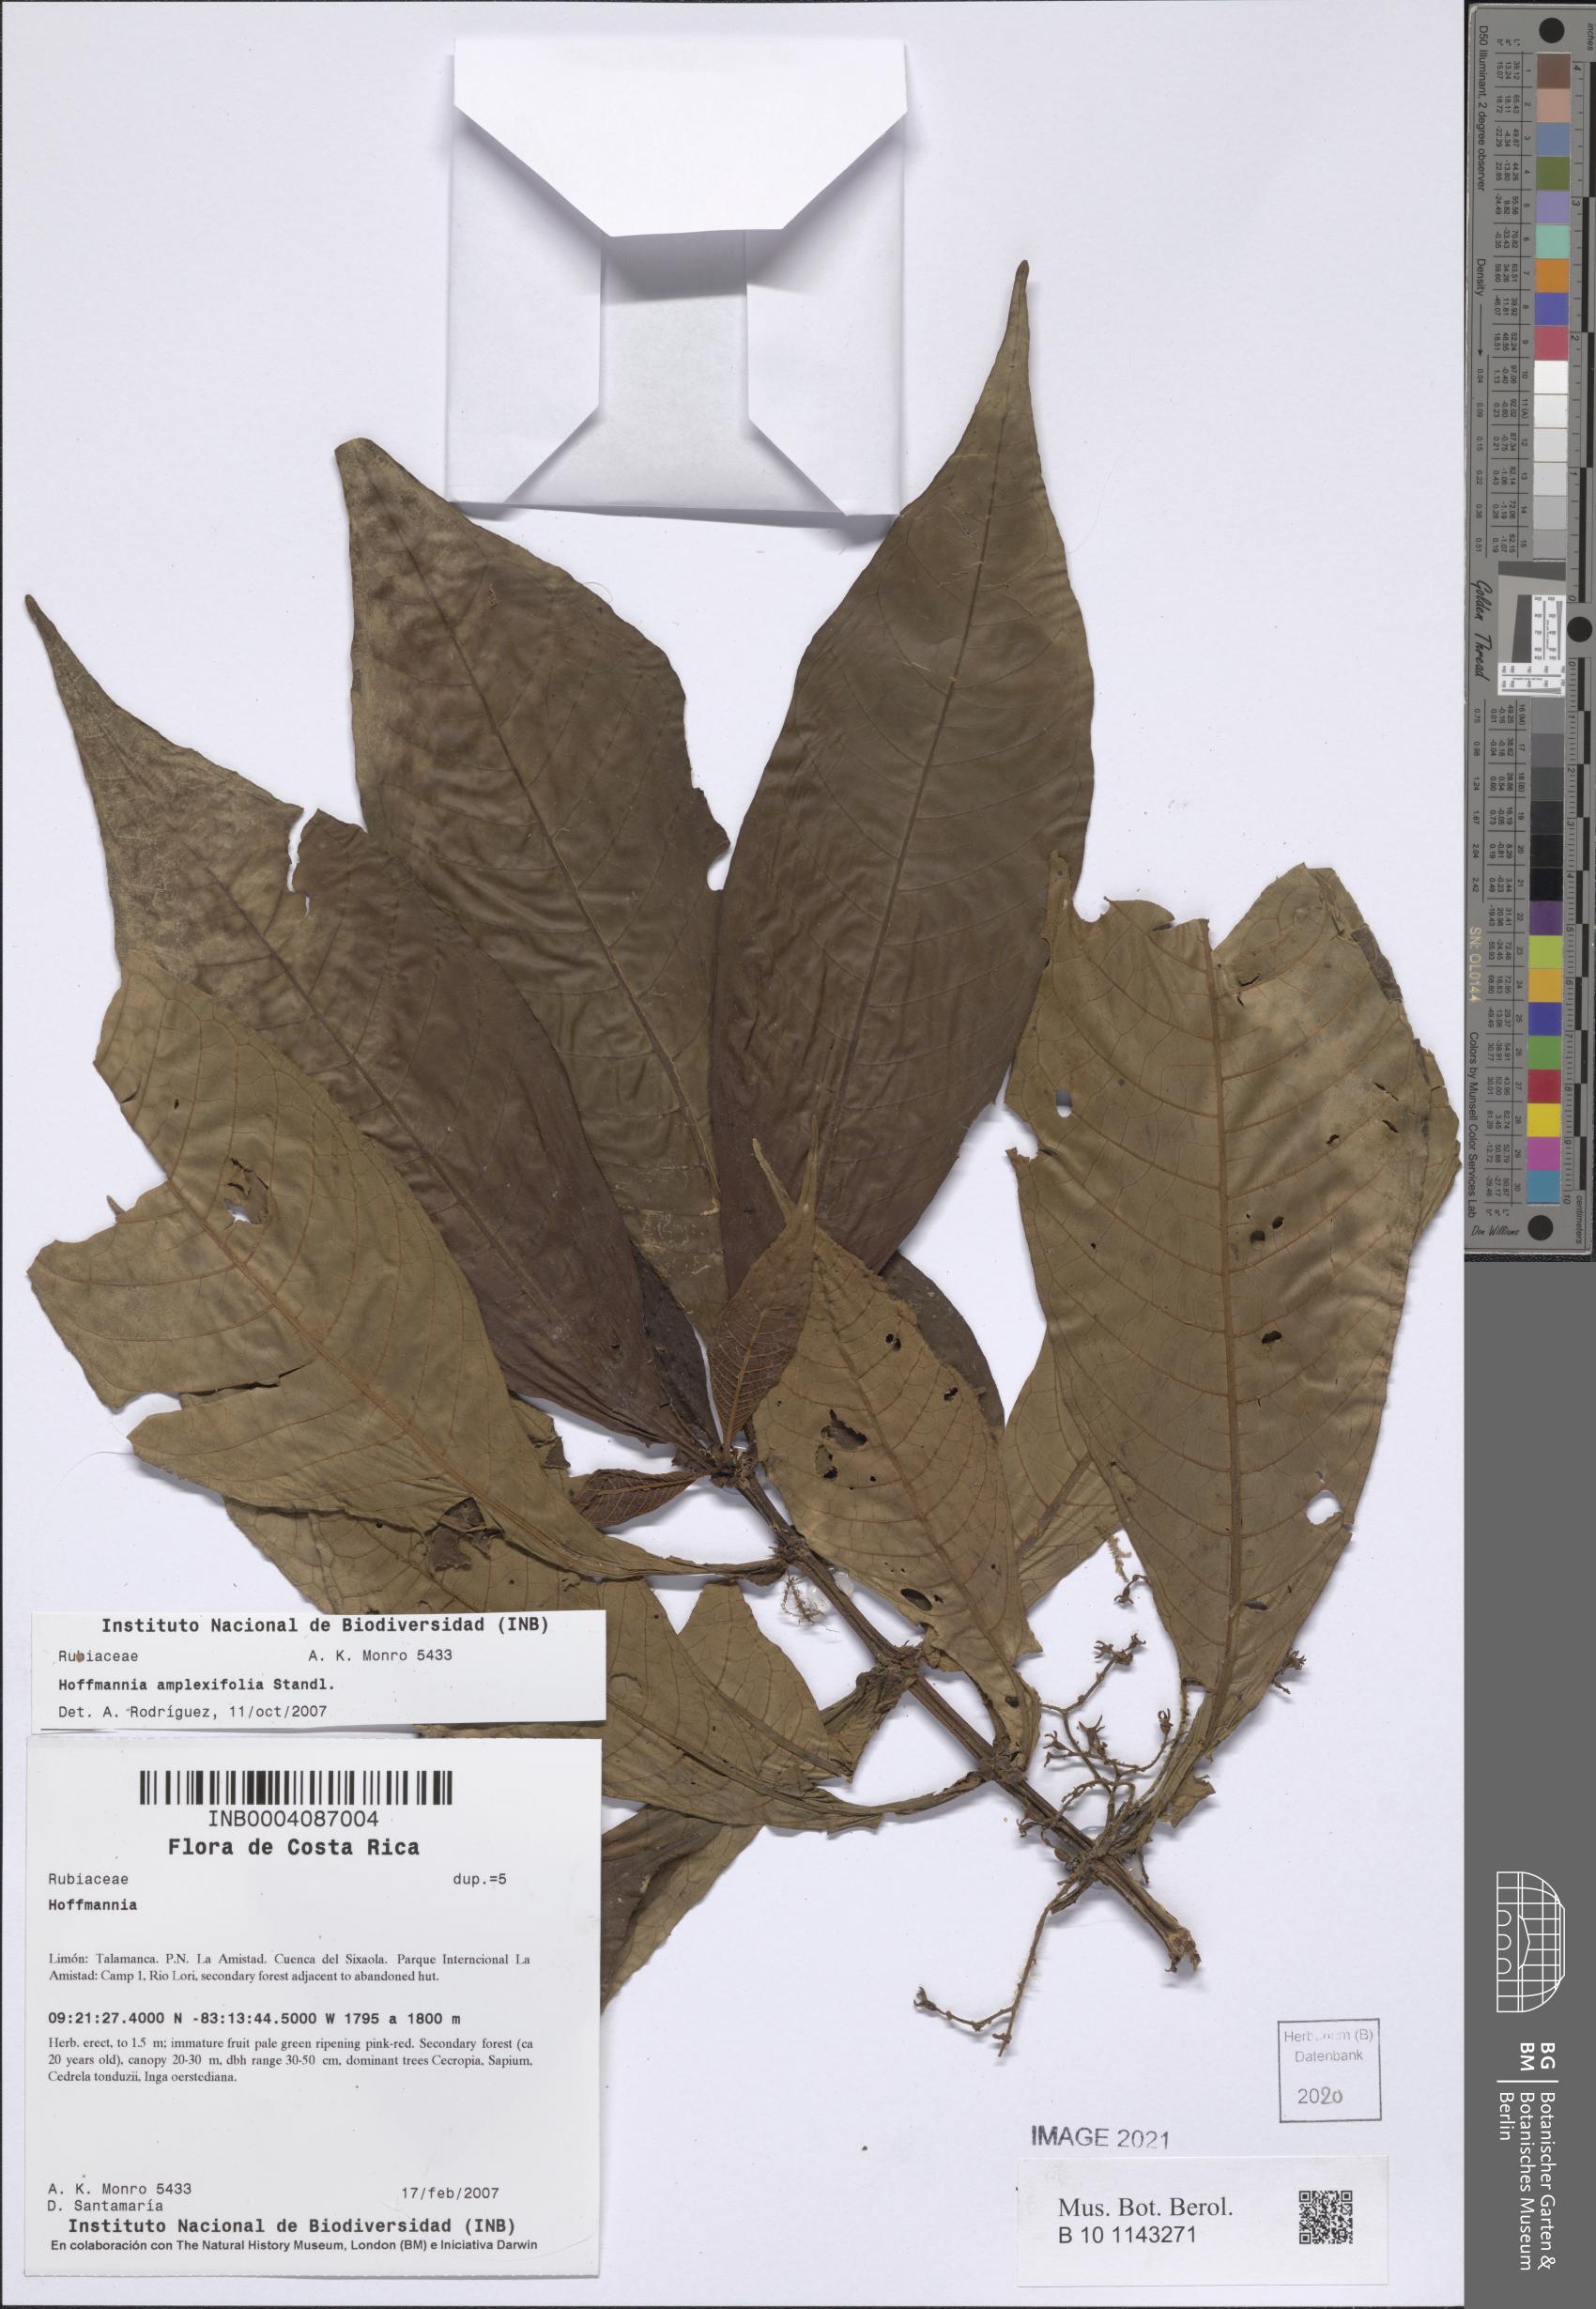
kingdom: Plantae
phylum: Tracheophyta
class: Magnoliopsida
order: Gentianales
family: Rubiaceae
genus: Hoffmannia
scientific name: Hoffmannia amplexifolia
